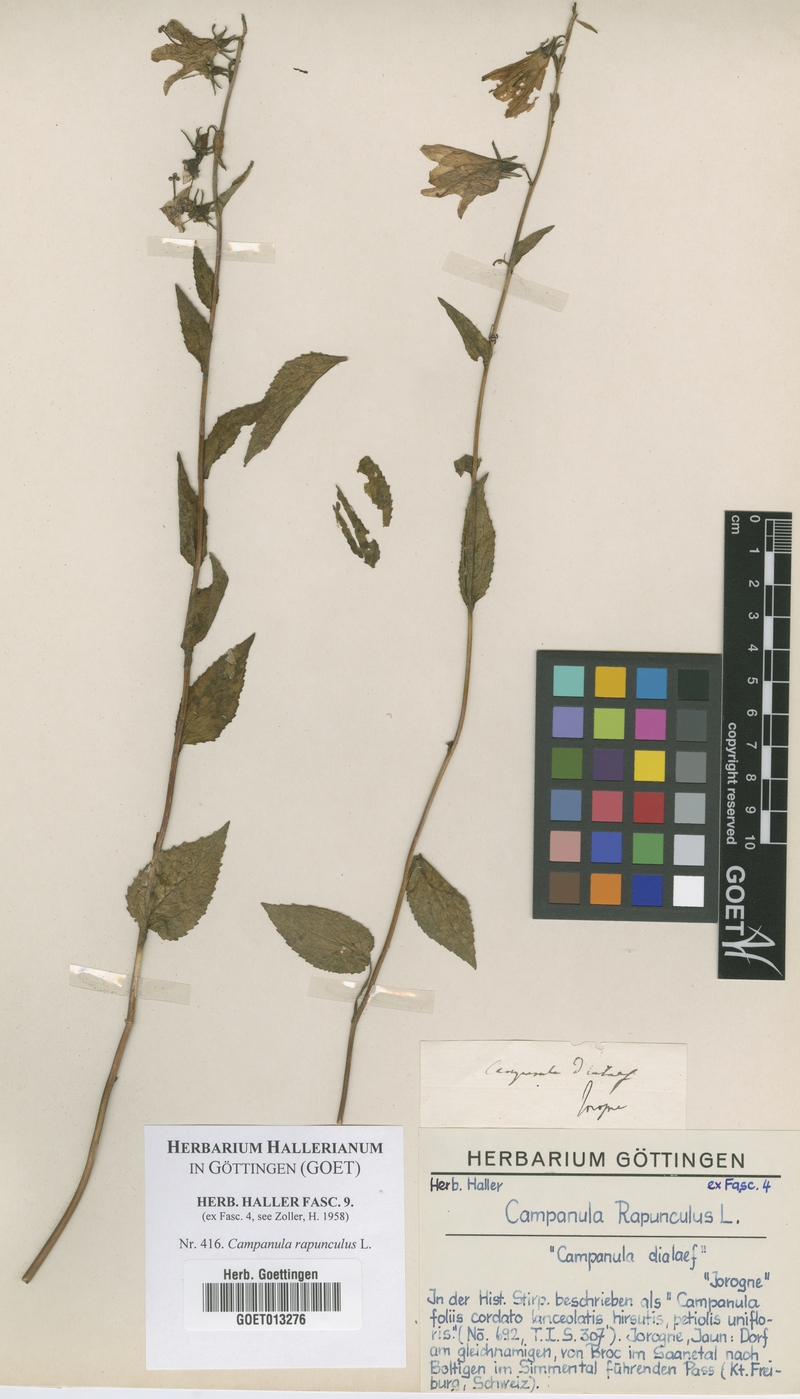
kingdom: Plantae
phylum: Tracheophyta
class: Magnoliopsida
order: Asterales
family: Campanulaceae
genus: Campanula
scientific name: Campanula rapunculus
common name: Rampion bellflower
